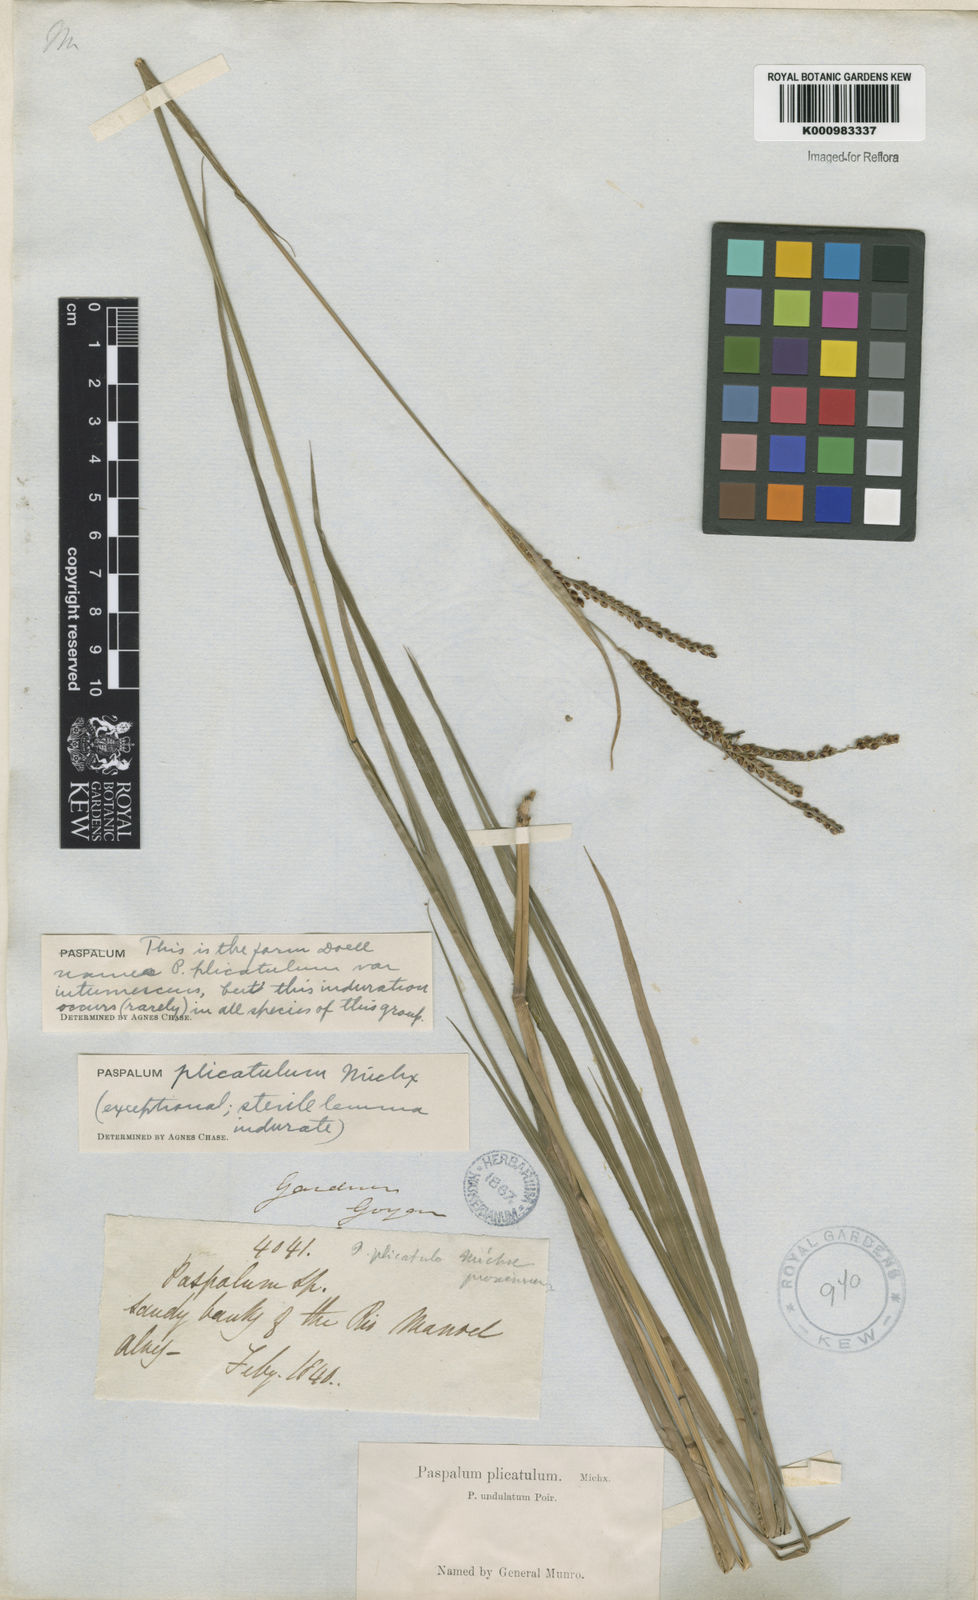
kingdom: Plantae
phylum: Tracheophyta
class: Liliopsida
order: Poales
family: Poaceae
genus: Paspalum
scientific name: Paspalum plicatulum
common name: Top paspalum
